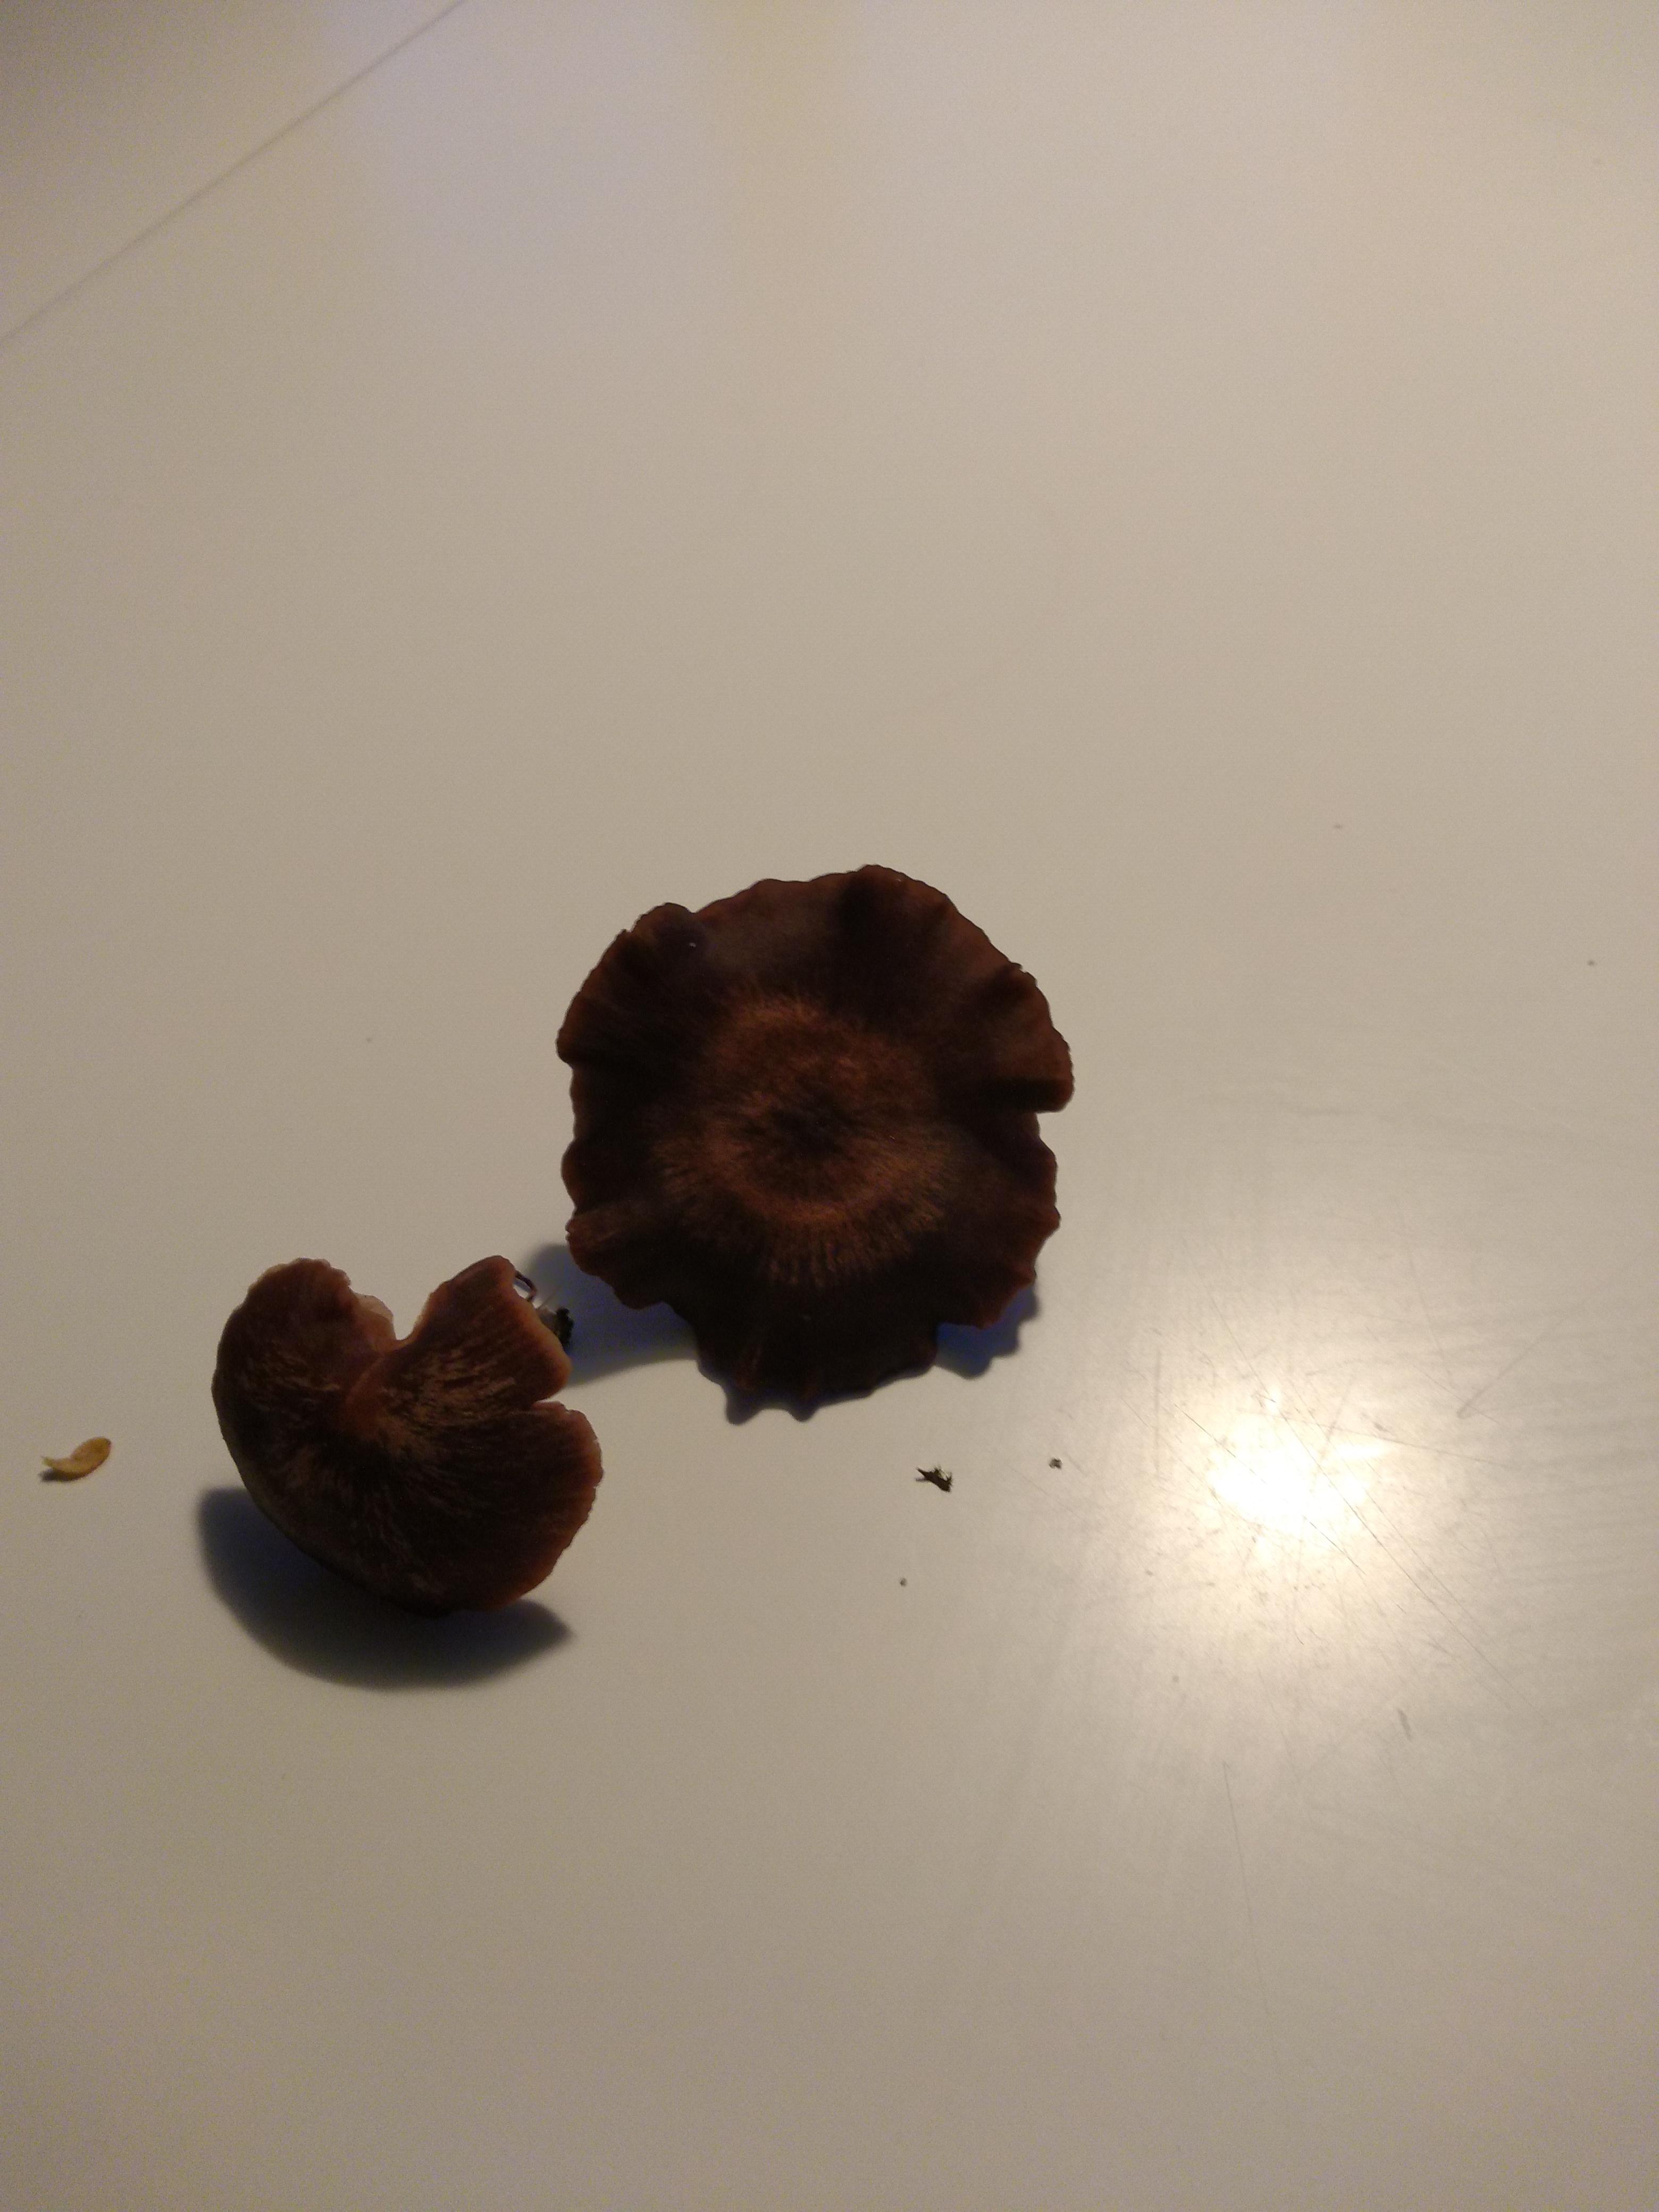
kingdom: Fungi
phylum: Basidiomycota
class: Agaricomycetes
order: Agaricales
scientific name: Agaricales
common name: champignonordenen
